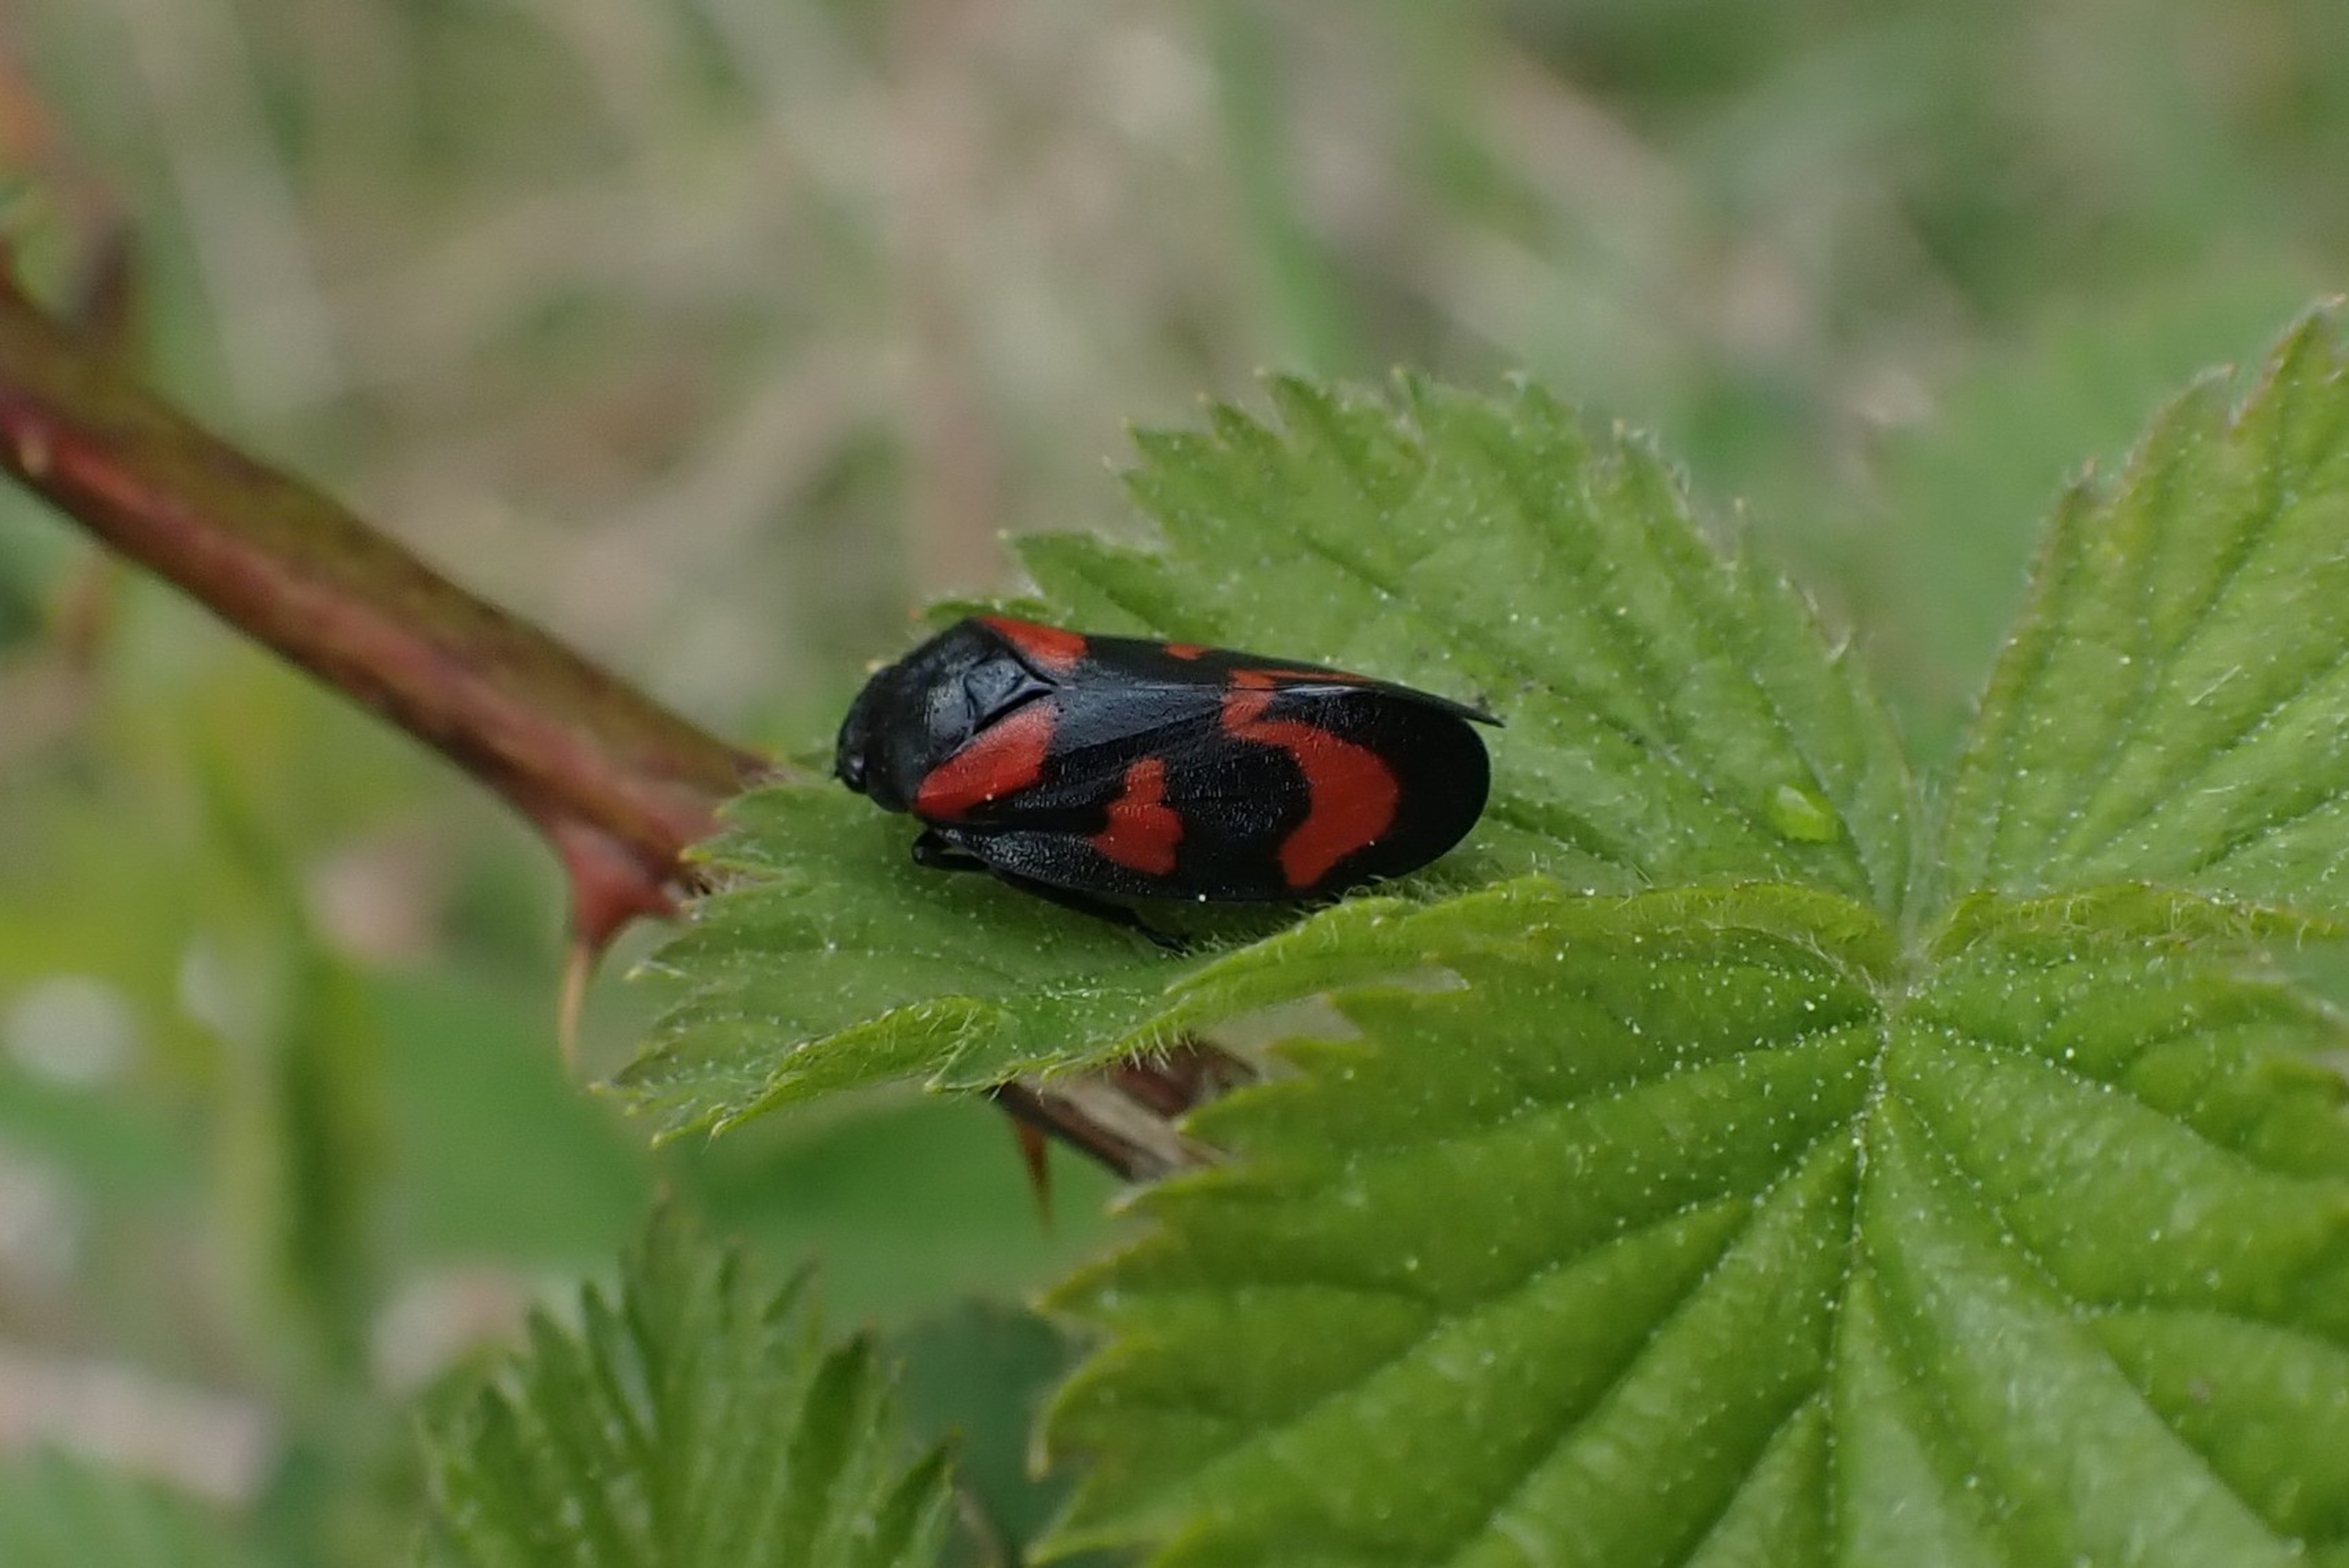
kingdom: Animalia
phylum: Arthropoda
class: Insecta
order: Hemiptera
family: Cercopidae
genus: Cercopis
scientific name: Cercopis vulnerata
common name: Blodcikade
